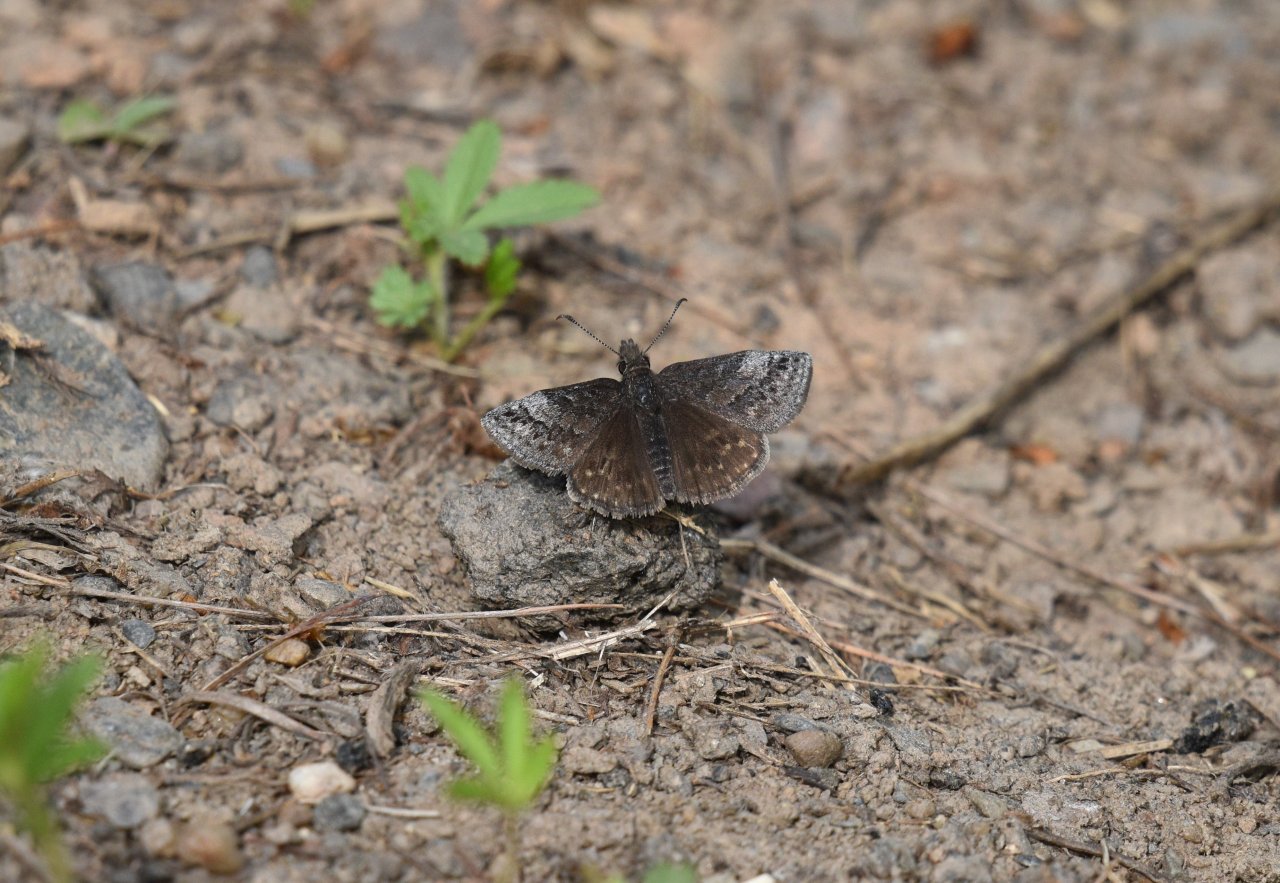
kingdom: Animalia
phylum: Arthropoda
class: Insecta
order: Lepidoptera
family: Hesperiidae
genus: Erynnis
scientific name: Erynnis icelus
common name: Dreamy Duskywing
